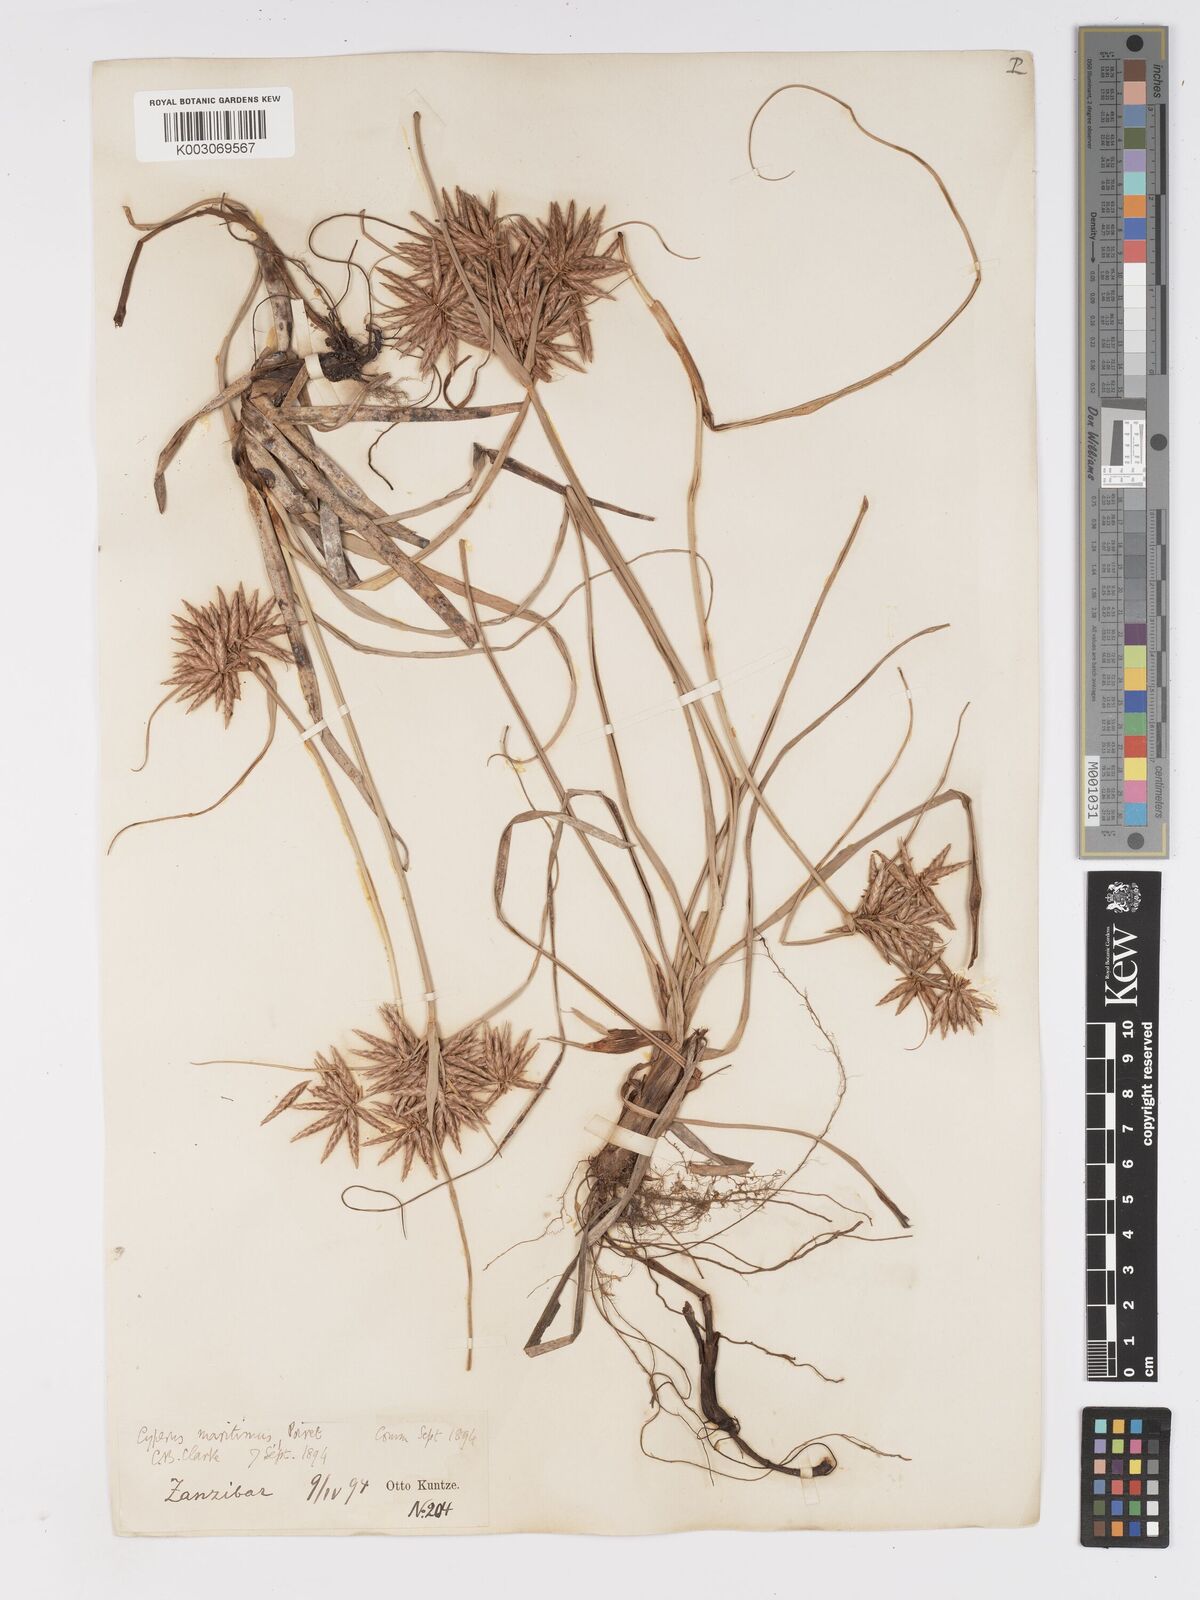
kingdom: Plantae
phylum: Tracheophyta
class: Liliopsida
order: Poales
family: Cyperaceae
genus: Cyperus
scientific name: Cyperus crassipes
